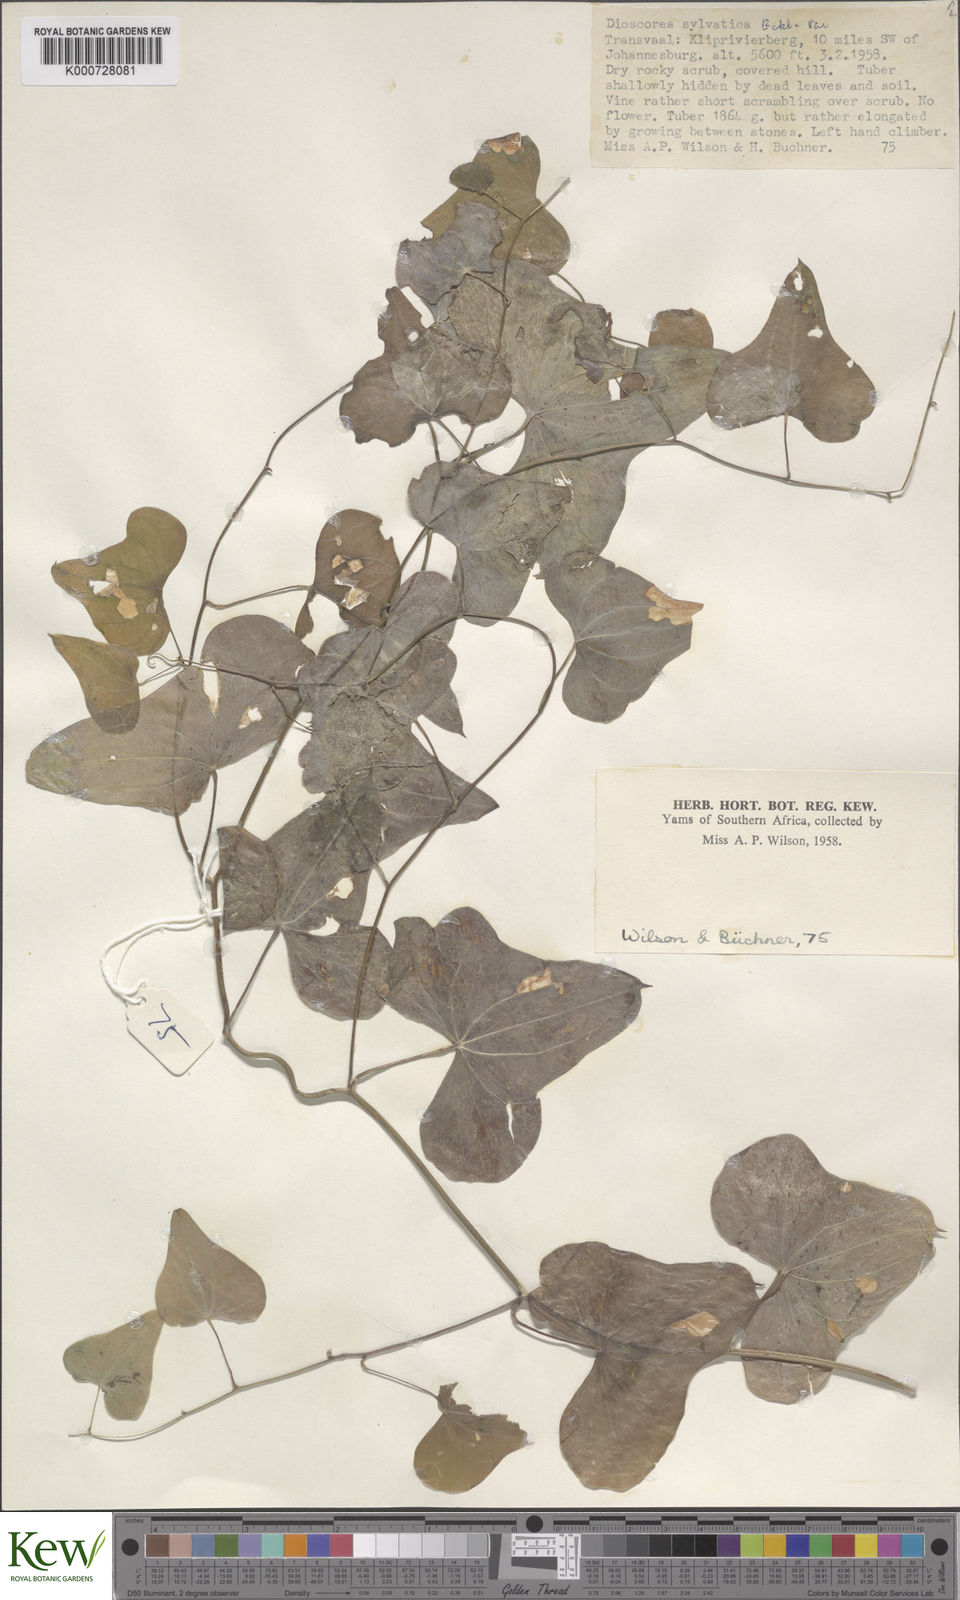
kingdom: Plantae
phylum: Tracheophyta
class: Liliopsida
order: Dioscoreales
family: Dioscoreaceae
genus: Dioscorea
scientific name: Dioscorea sylvatica
